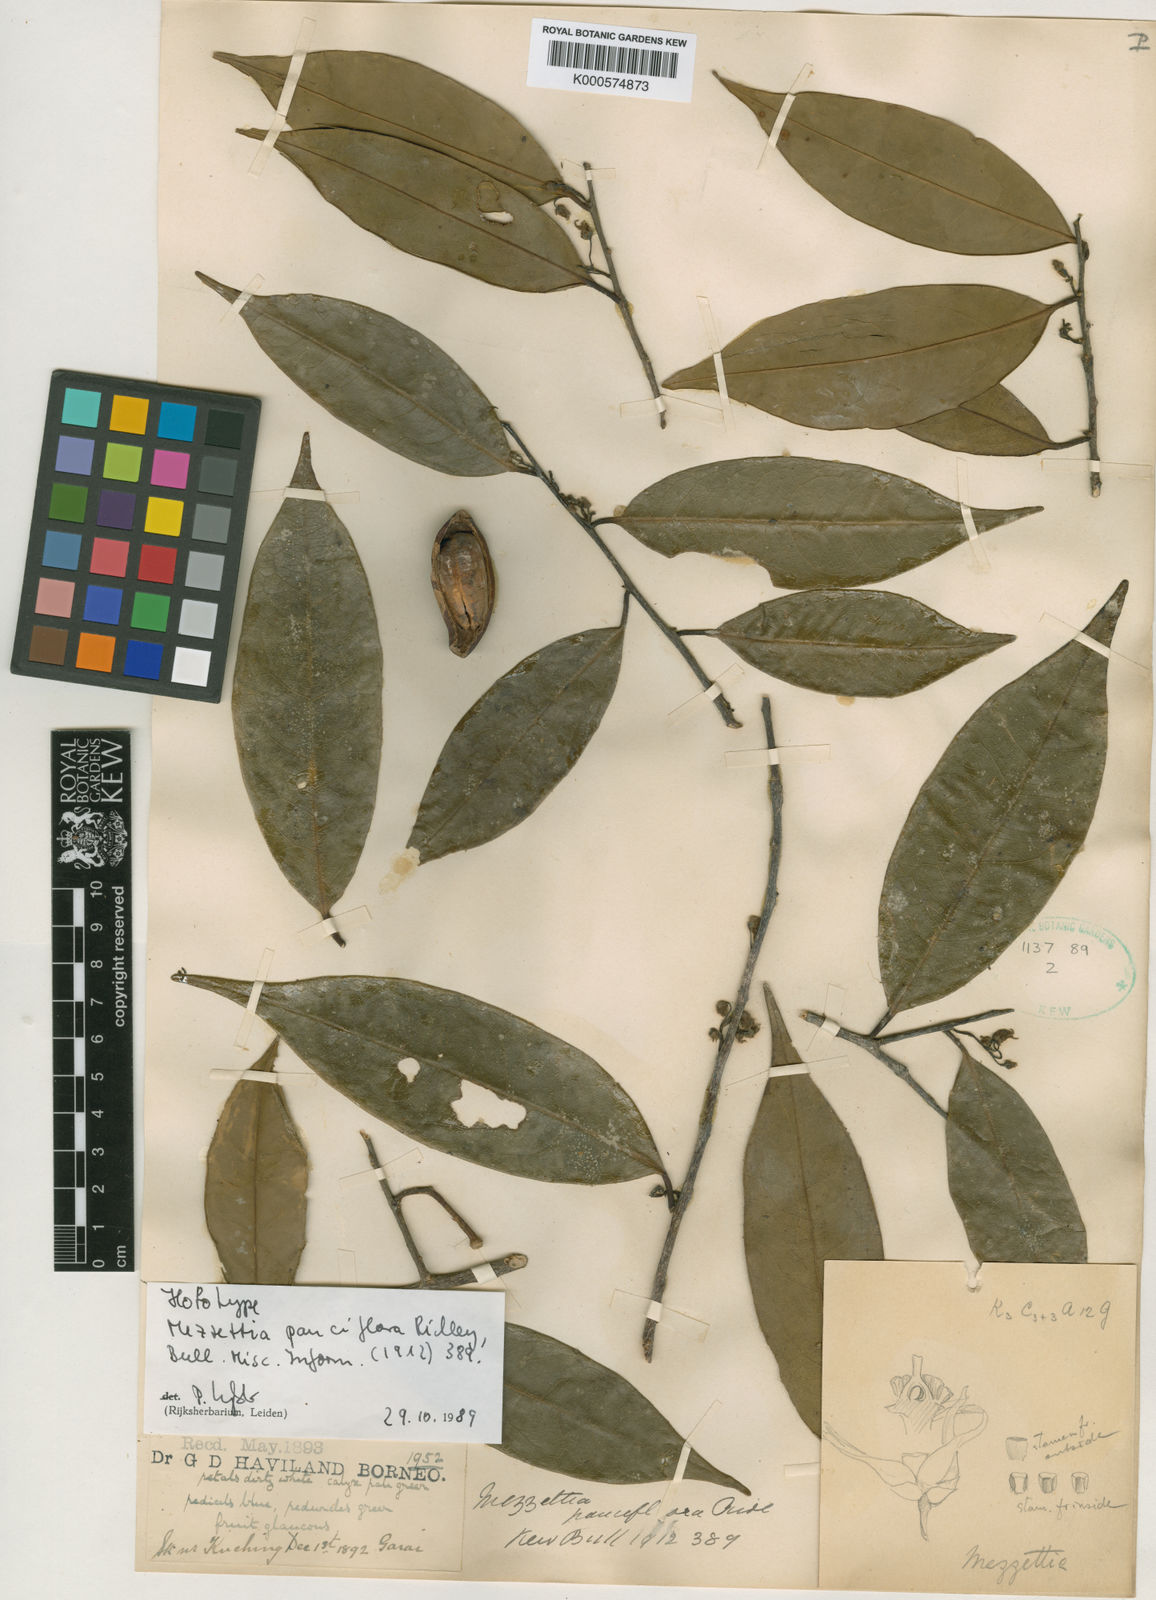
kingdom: Plantae
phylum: Tracheophyta
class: Magnoliopsida
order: Magnoliales
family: Annonaceae
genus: Mezzettia
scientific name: Mezzettia umbellata
